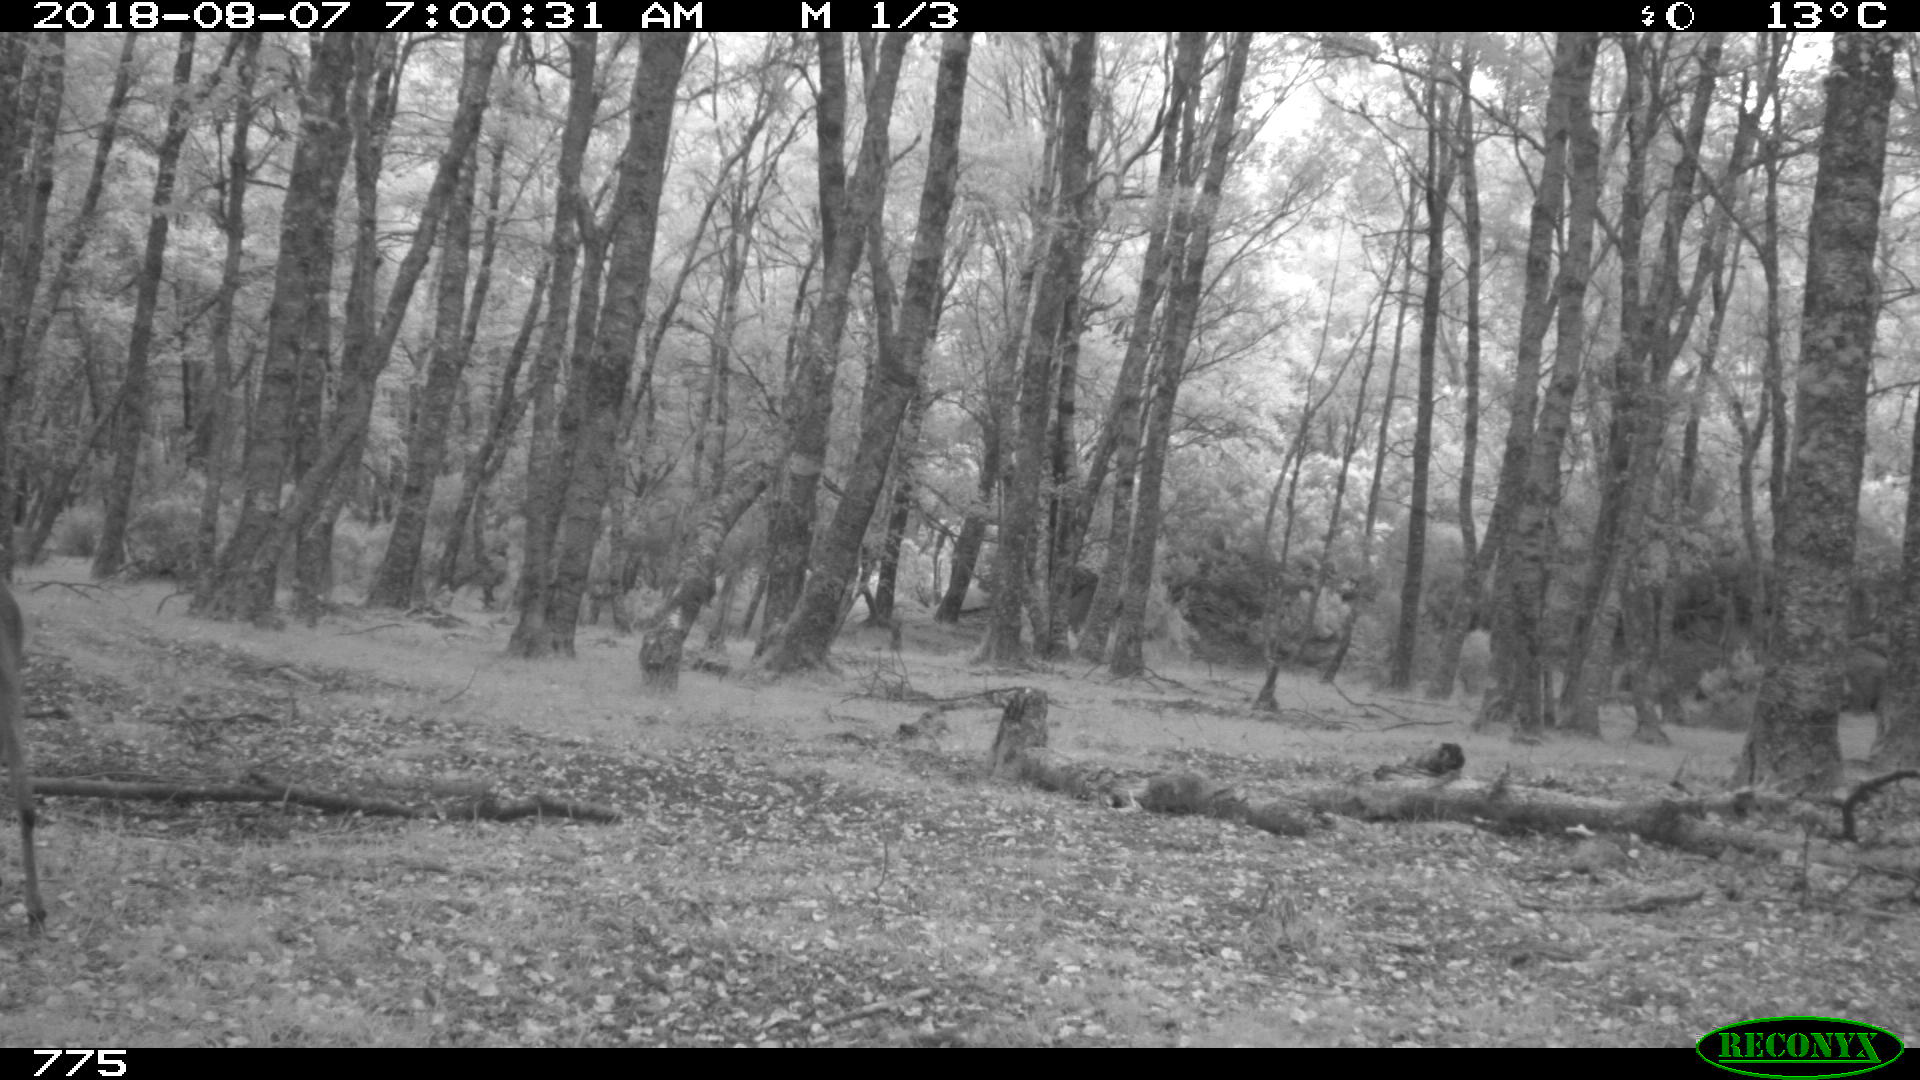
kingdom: Animalia
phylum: Chordata
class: Mammalia
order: Artiodactyla
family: Cervidae
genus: Capreolus
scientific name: Capreolus capreolus
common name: Western roe deer
